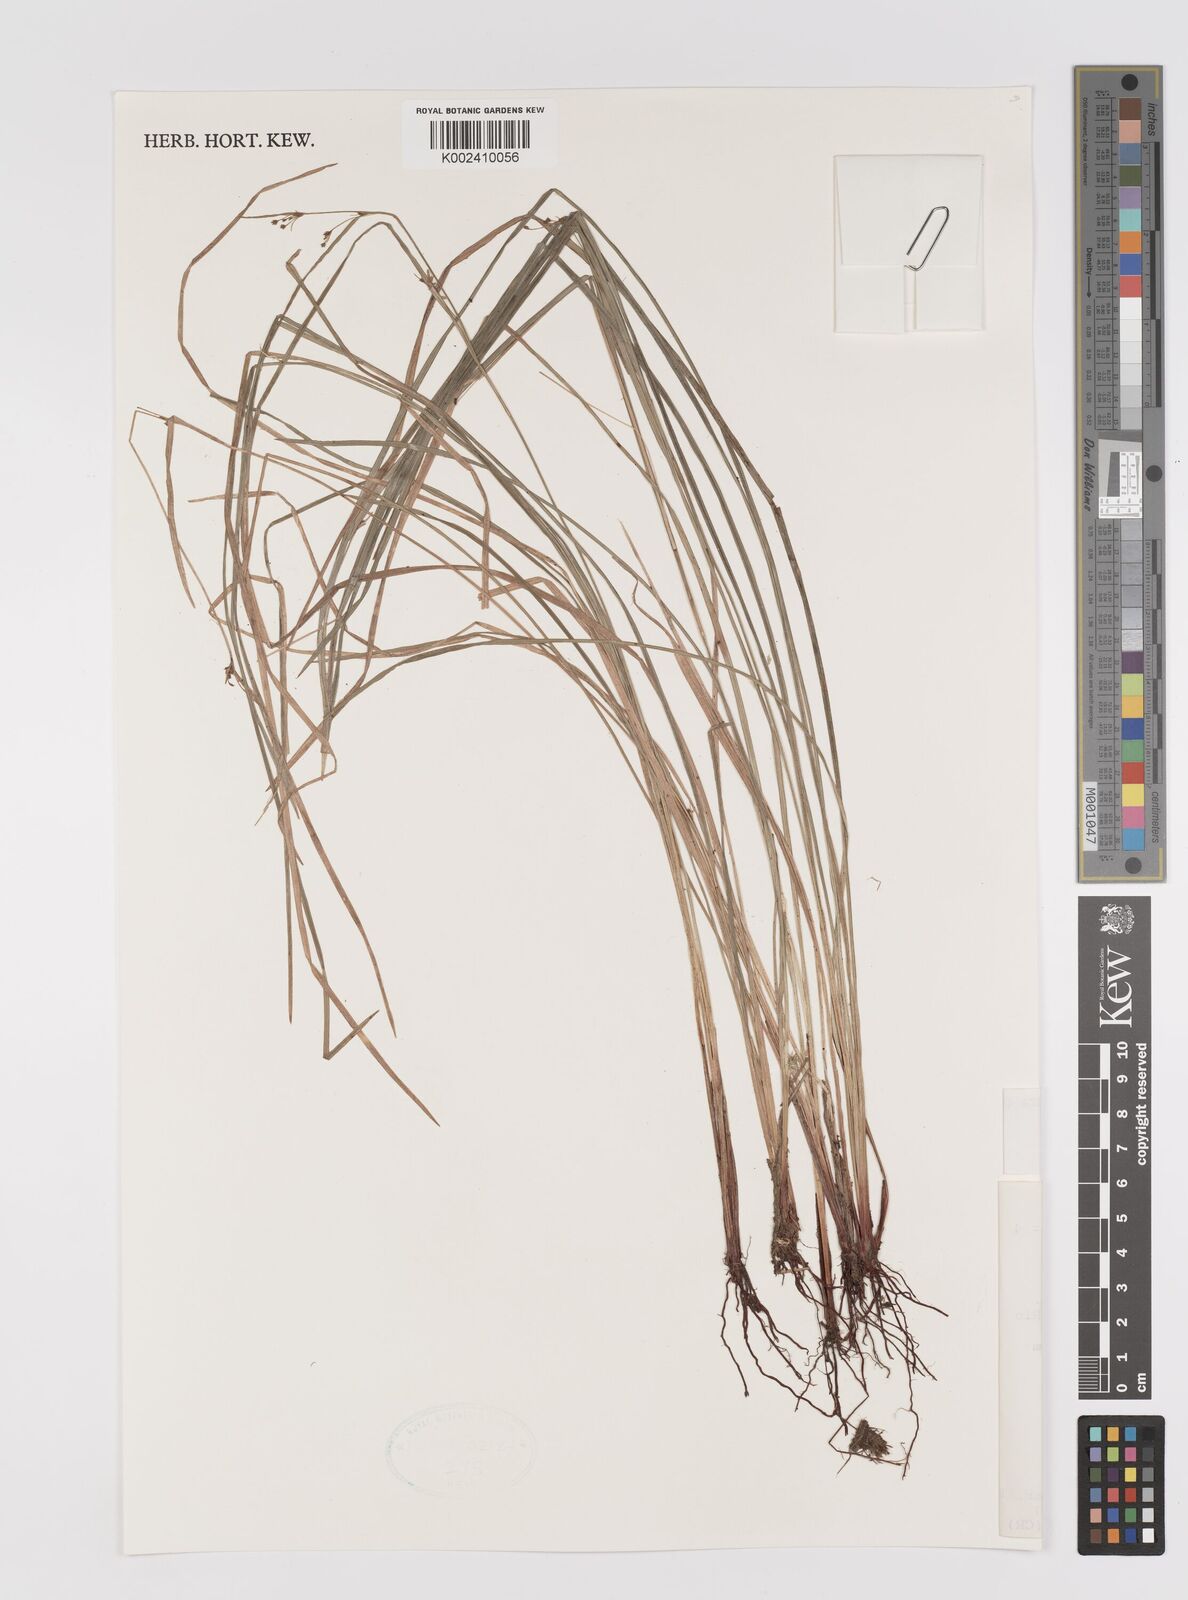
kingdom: Plantae
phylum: Tracheophyta
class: Liliopsida
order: Poales
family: Cyperaceae
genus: Calyptrocarya
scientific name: Calyptrocarya luzuliformis
